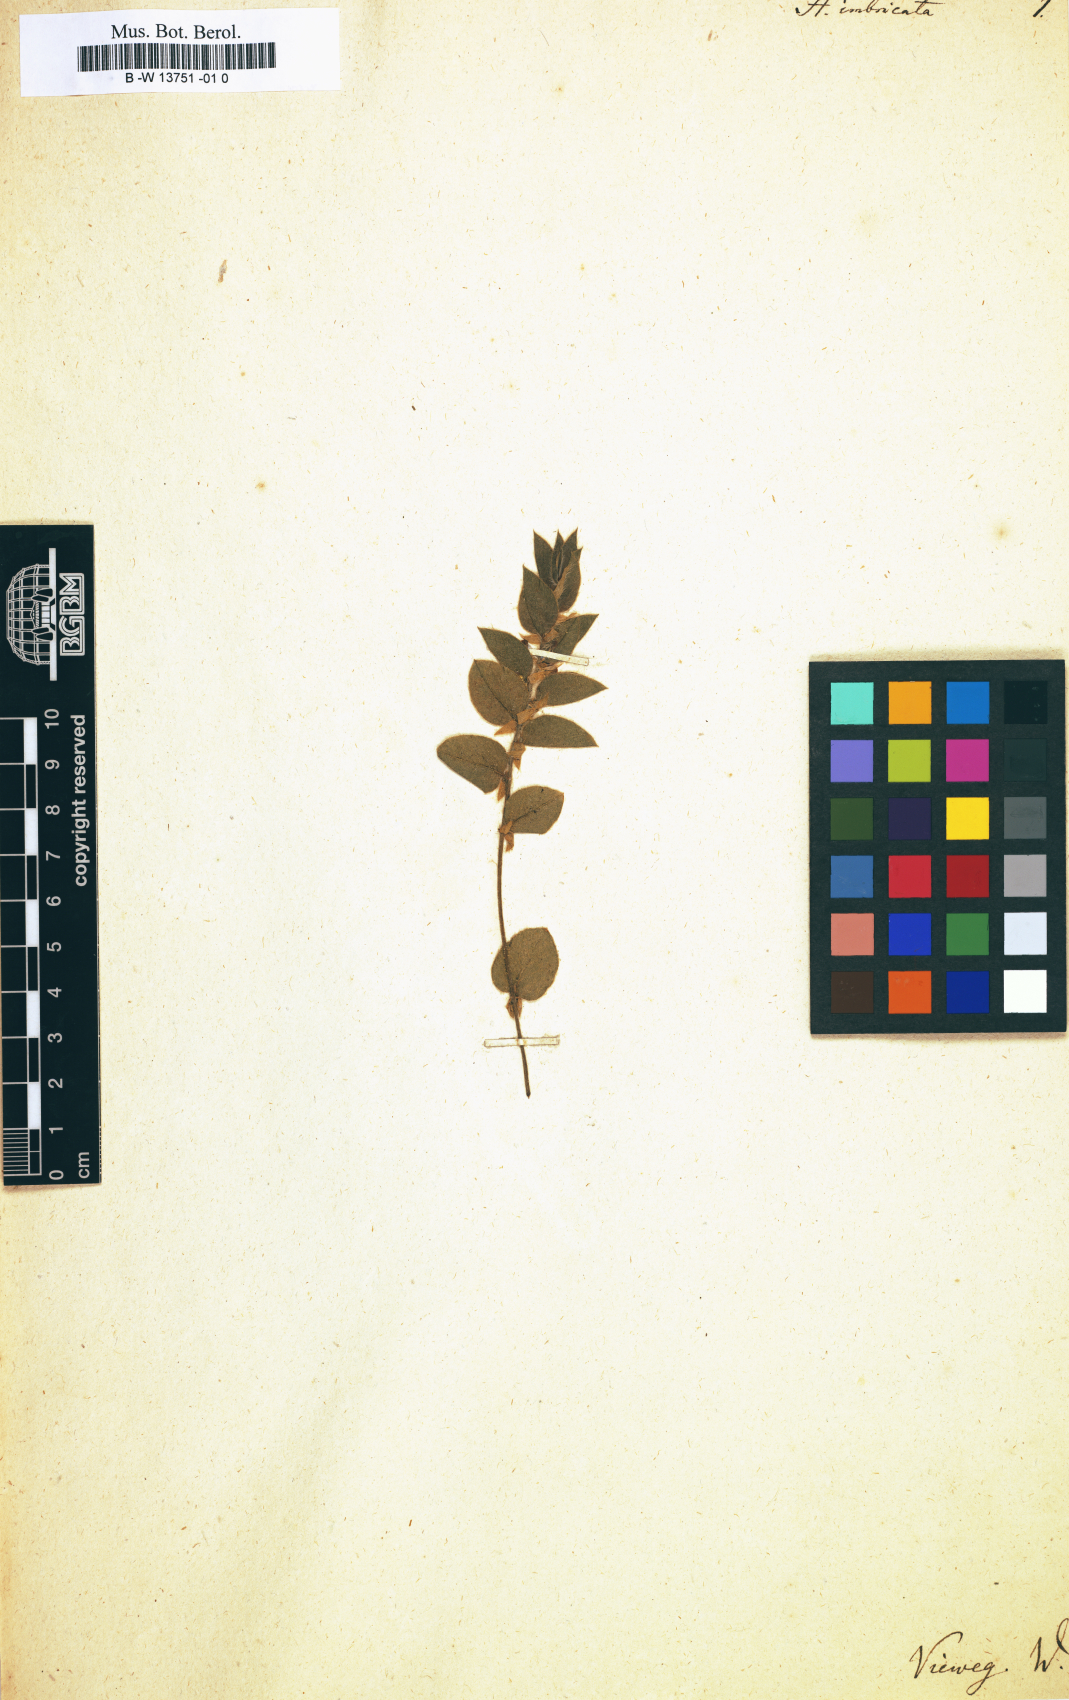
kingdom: Plantae
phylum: Tracheophyta
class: Magnoliopsida
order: Fabales
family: Fabaceae
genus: Psoralea
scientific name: Psoralea imbricata
